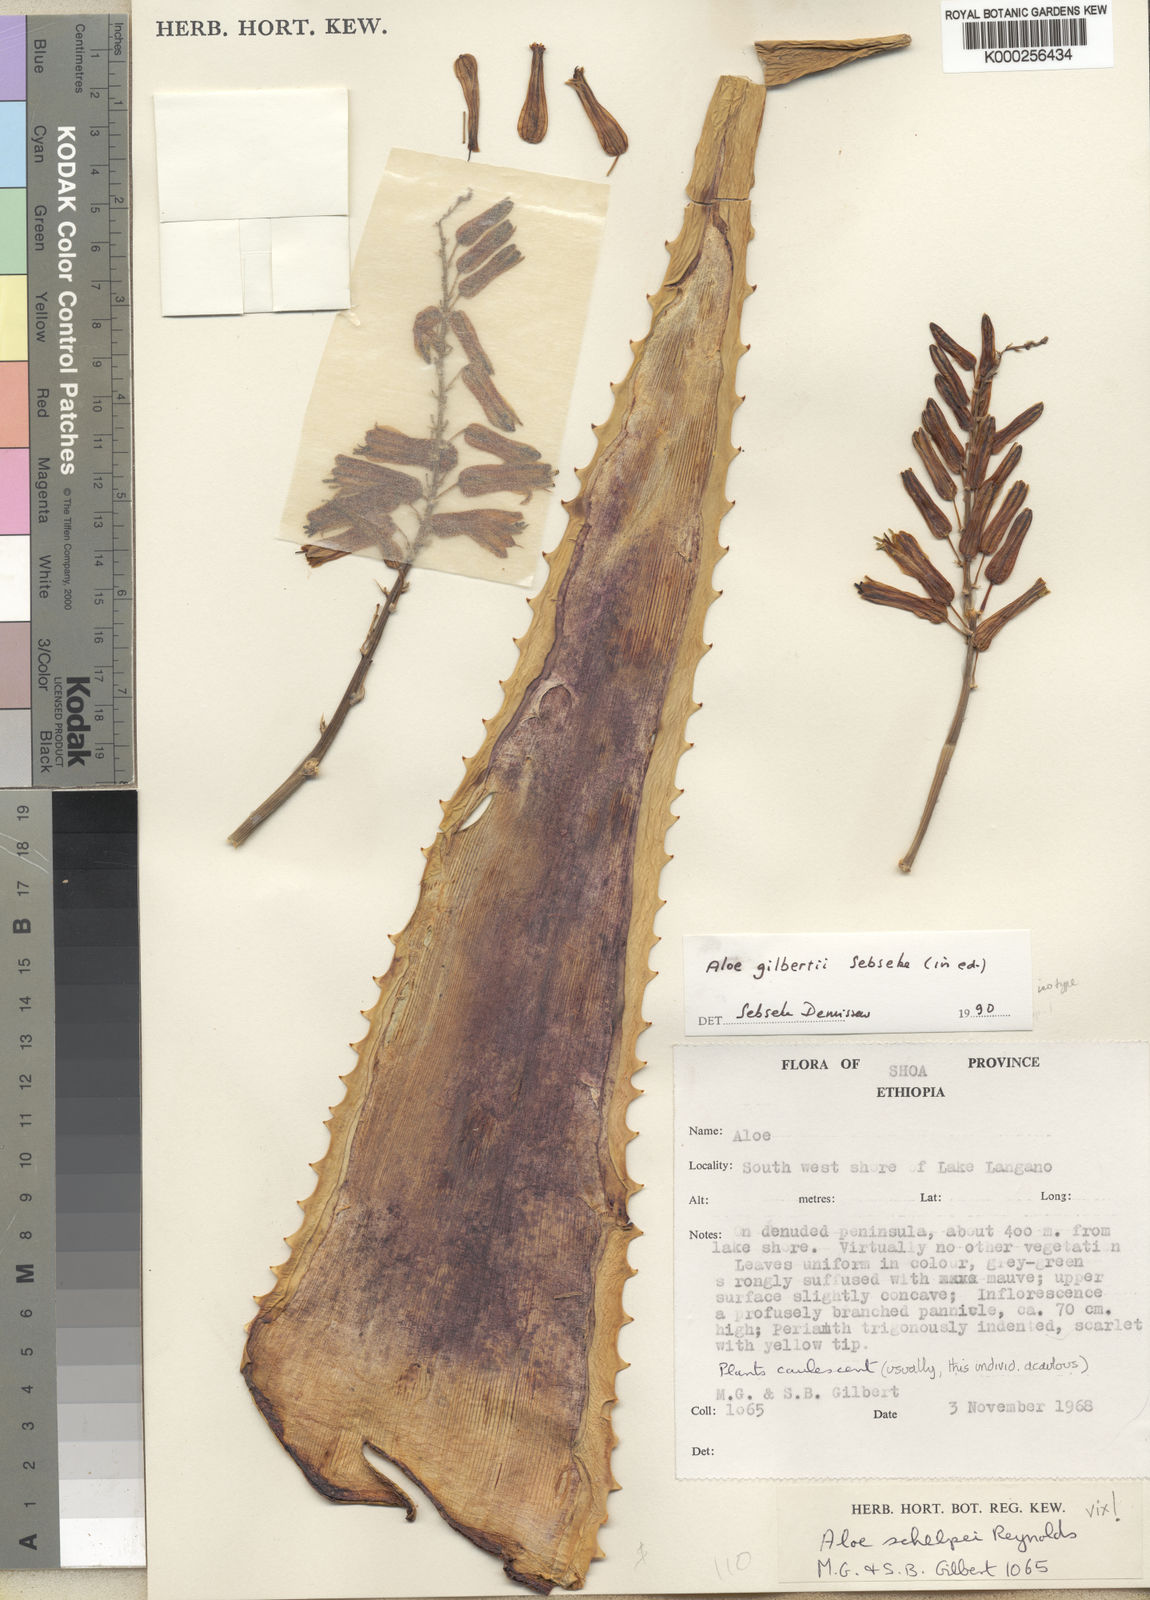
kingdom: Plantae
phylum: Tracheophyta
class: Liliopsida
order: Asparagales
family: Asphodelaceae
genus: Aloe
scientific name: Aloe gilbertii
